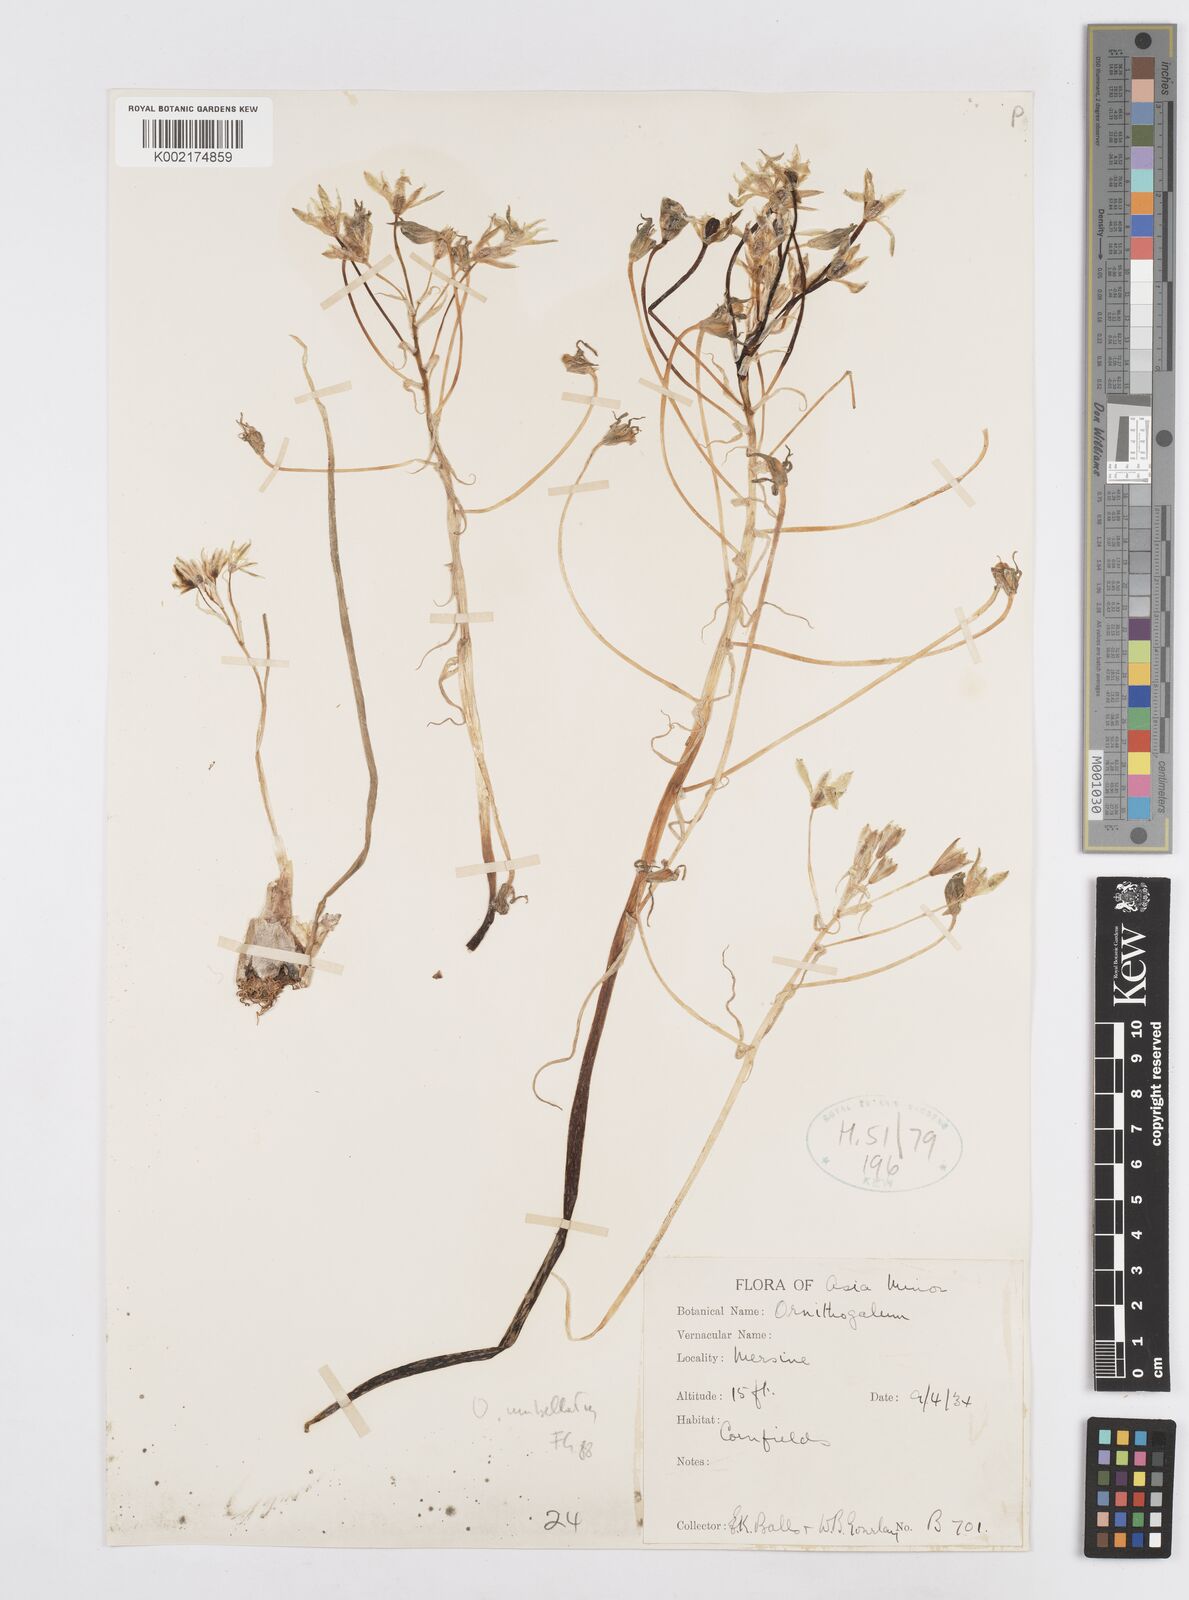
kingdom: Plantae
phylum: Tracheophyta
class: Liliopsida
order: Asparagales
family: Asparagaceae
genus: Ornithogalum
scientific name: Ornithogalum umbellatum
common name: Garden star-of-bethlehem
